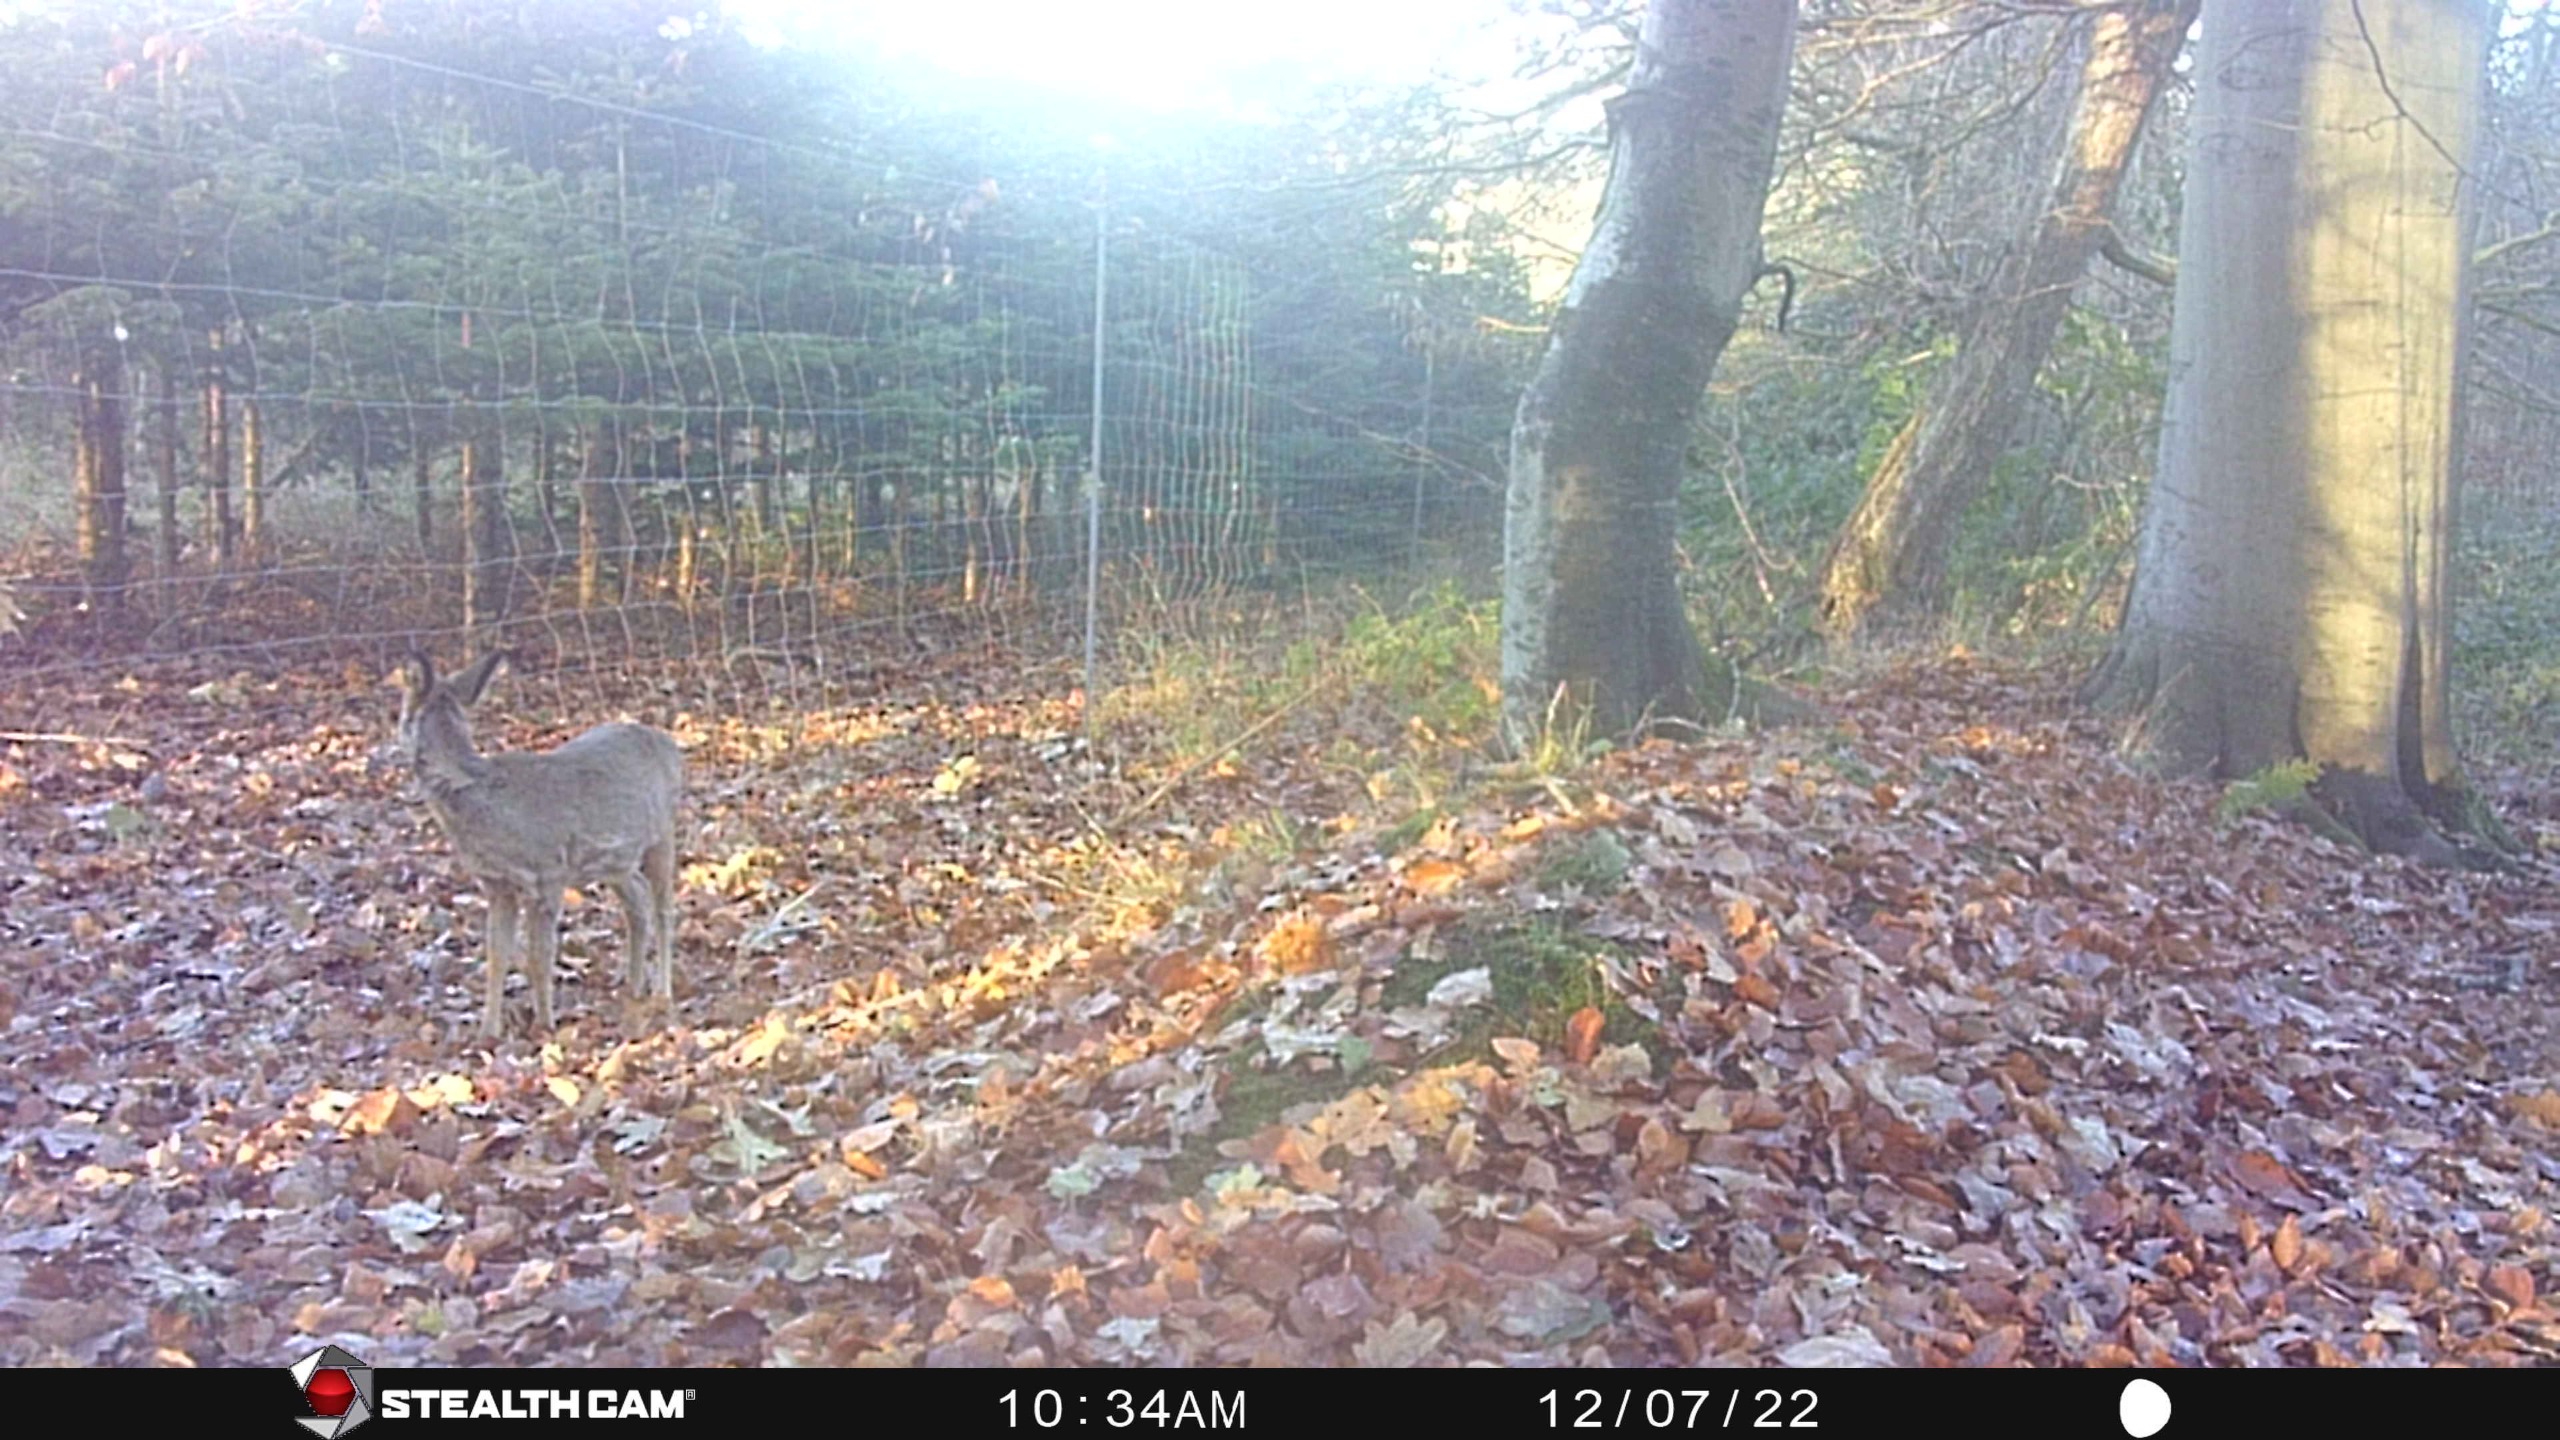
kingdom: Animalia
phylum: Chordata
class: Mammalia
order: Artiodactyla
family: Cervidae
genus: Capreolus
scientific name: Capreolus capreolus
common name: Rådyr
